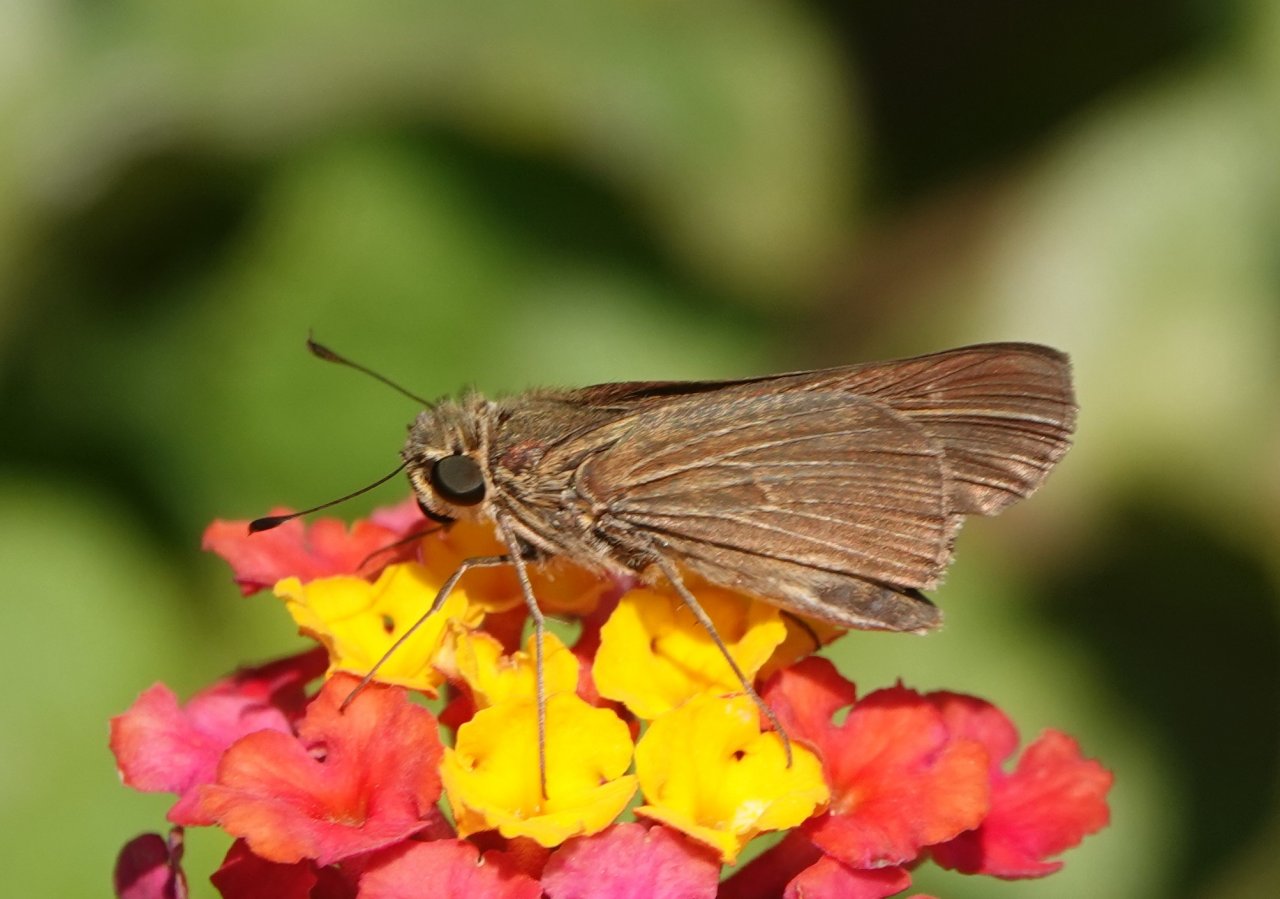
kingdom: Animalia
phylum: Arthropoda
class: Insecta
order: Lepidoptera
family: Hesperiidae
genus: Panoquina
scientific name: Panoquina ocola
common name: Ocola Skipper
